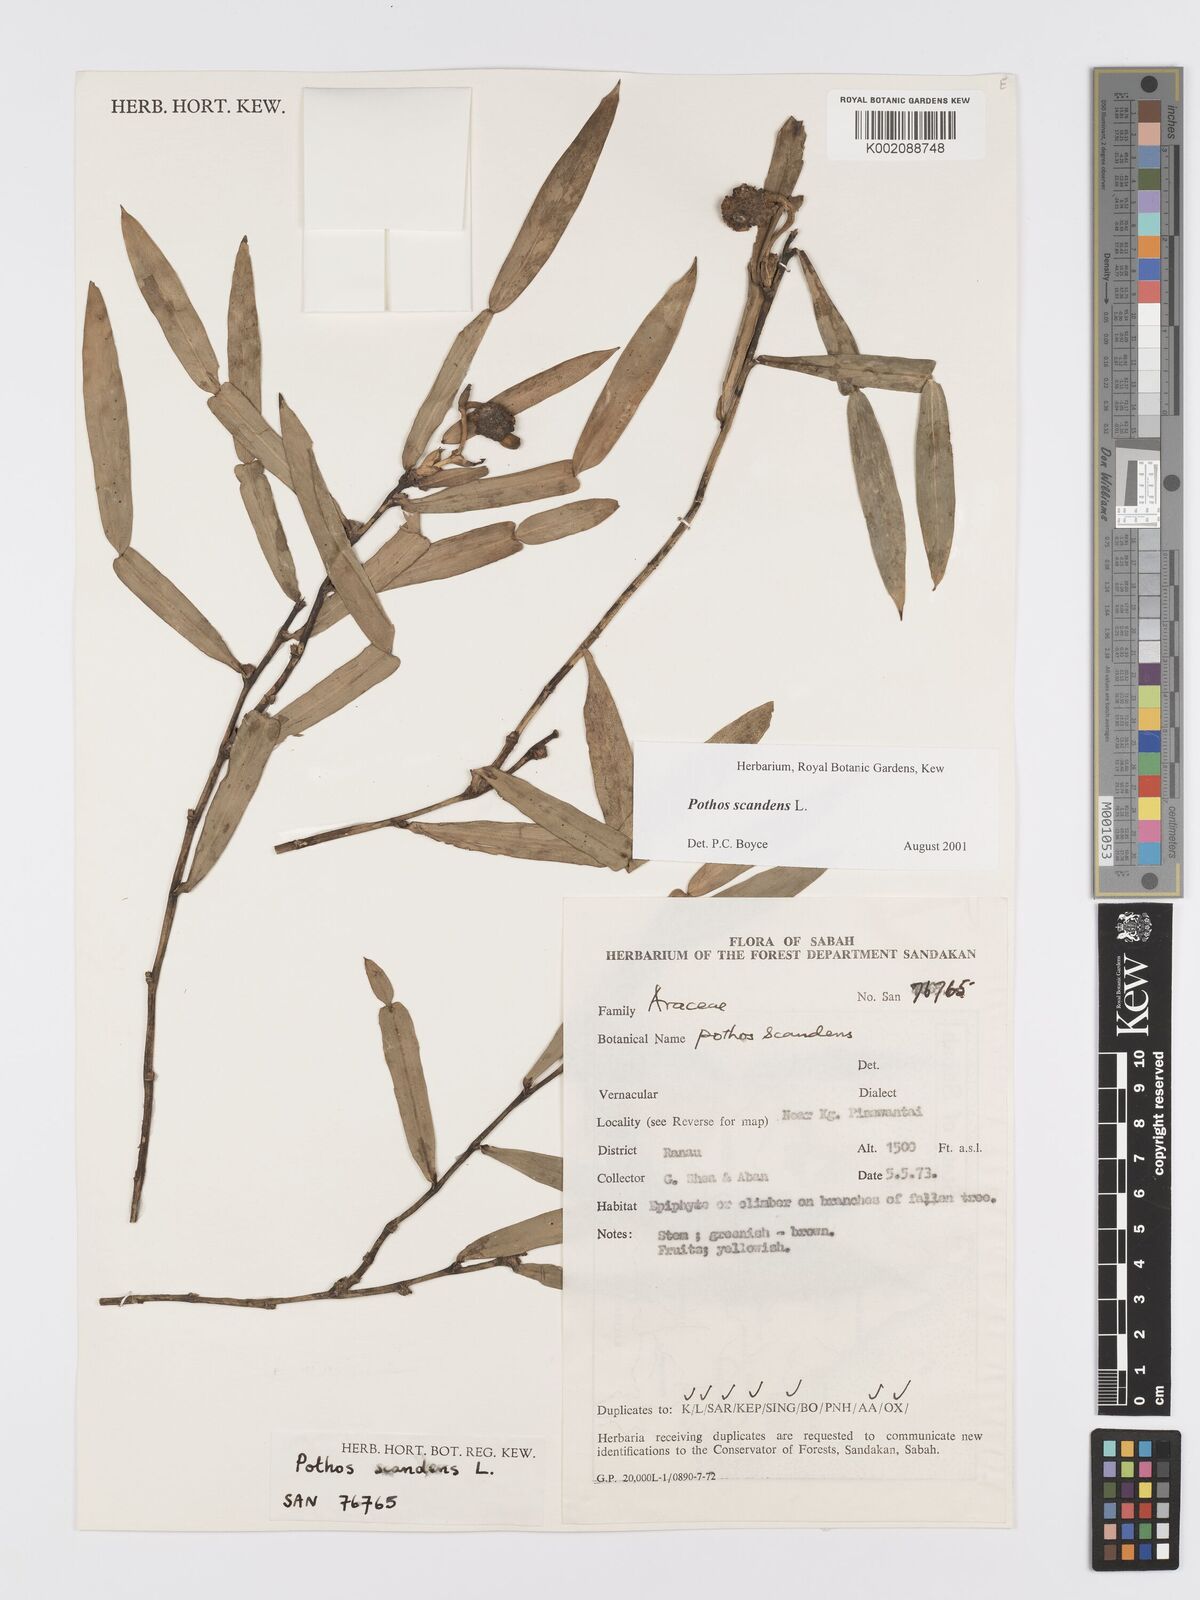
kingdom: Plantae
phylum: Tracheophyta
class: Liliopsida
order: Alismatales
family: Araceae
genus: Pothos
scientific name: Pothos scandens
